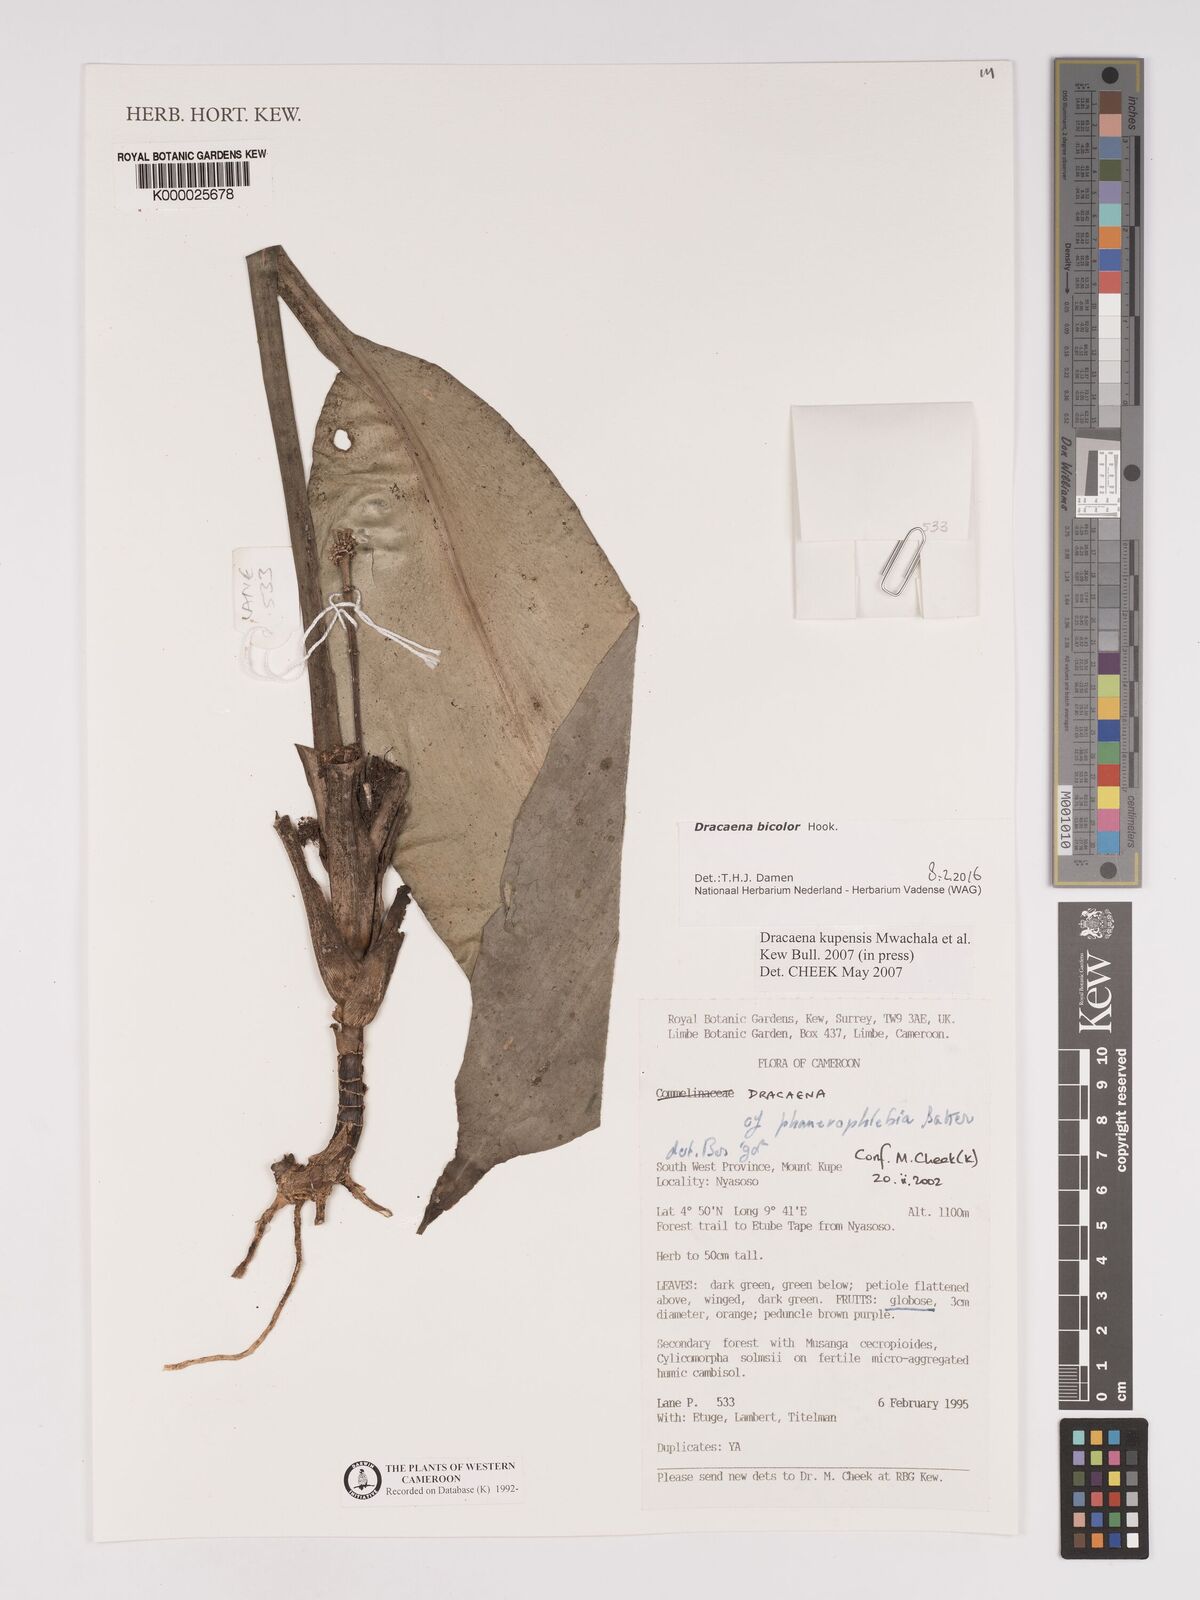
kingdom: Plantae
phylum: Tracheophyta
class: Liliopsida
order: Asparagales
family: Asparagaceae
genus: Dracaena
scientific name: Dracaena kupensis
